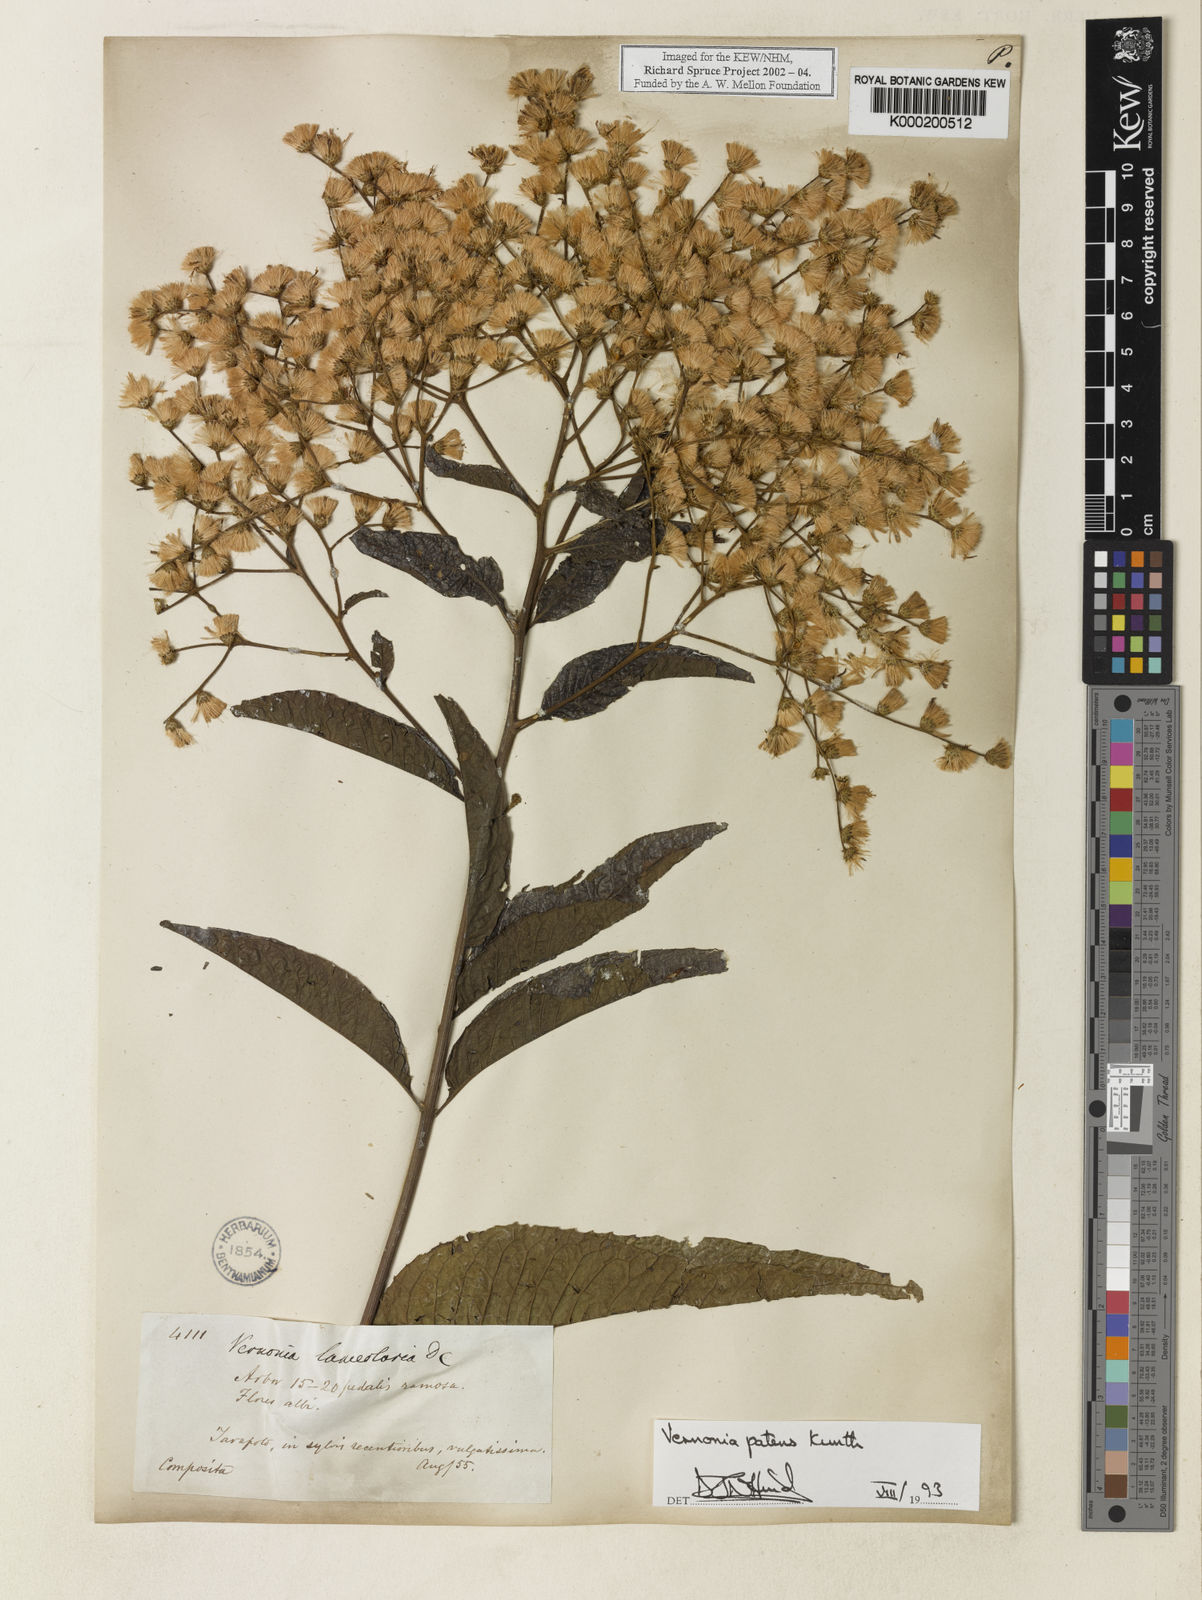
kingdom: Plantae
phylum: Tracheophyta
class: Magnoliopsida
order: Asterales
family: Asteraceae
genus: Vernonanthura
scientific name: Vernonanthura patens
